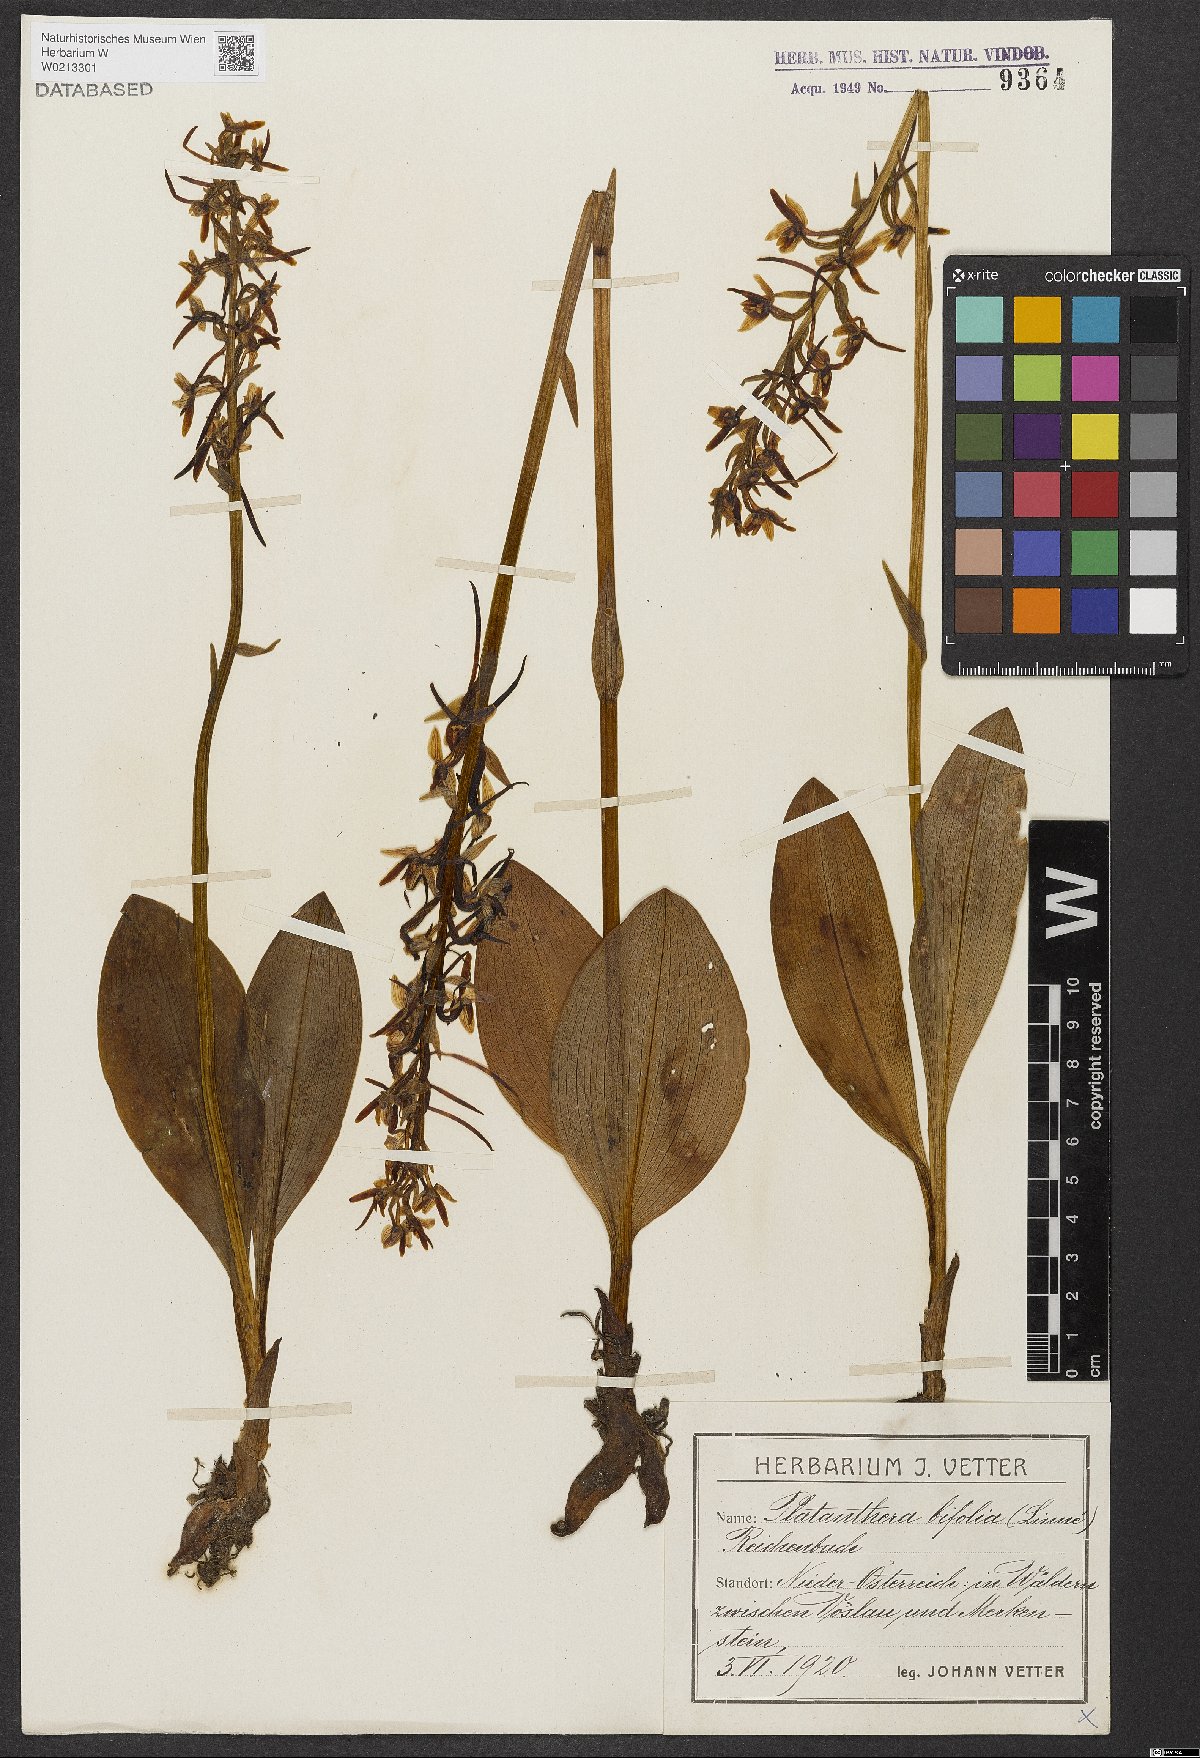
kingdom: Plantae
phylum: Tracheophyta
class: Liliopsida
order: Asparagales
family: Orchidaceae
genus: Platanthera
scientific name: Platanthera bifolia
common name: Lesser butterfly-orchid
